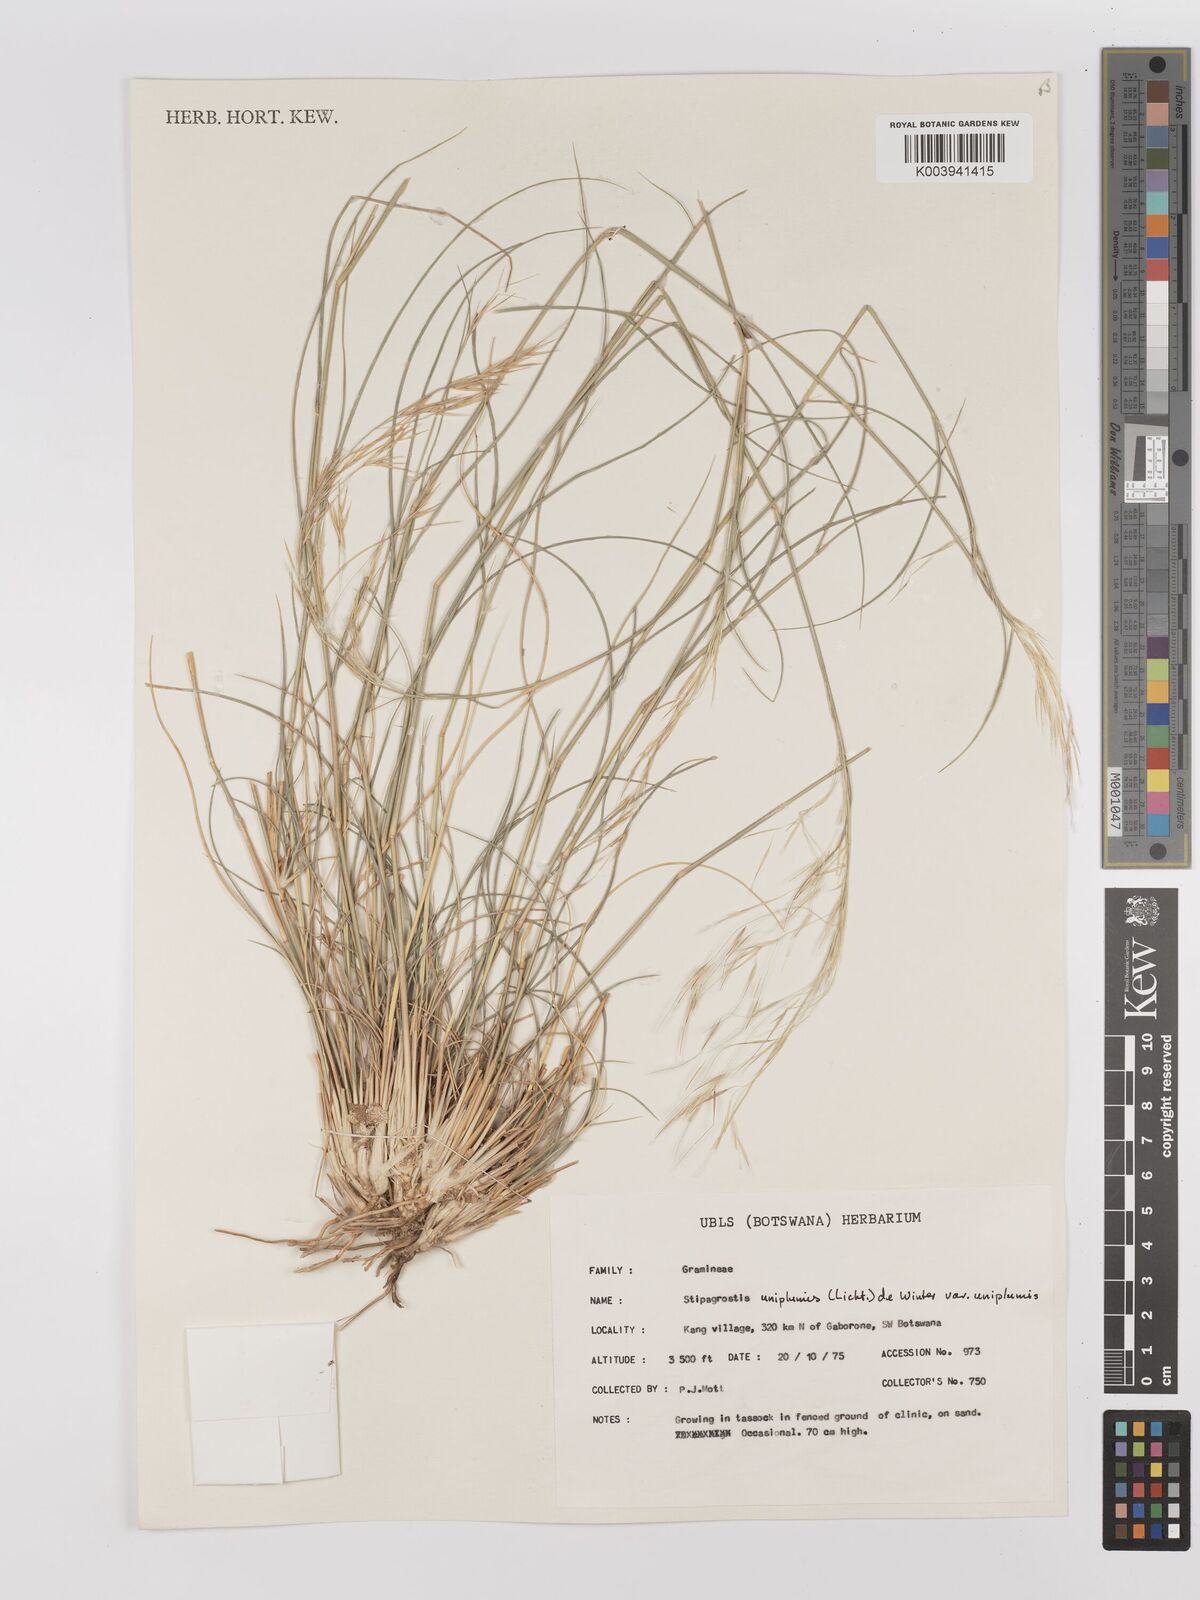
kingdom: Plantae
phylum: Tracheophyta
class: Liliopsida
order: Poales
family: Poaceae
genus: Stipagrostis
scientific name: Stipagrostis uniplumis
